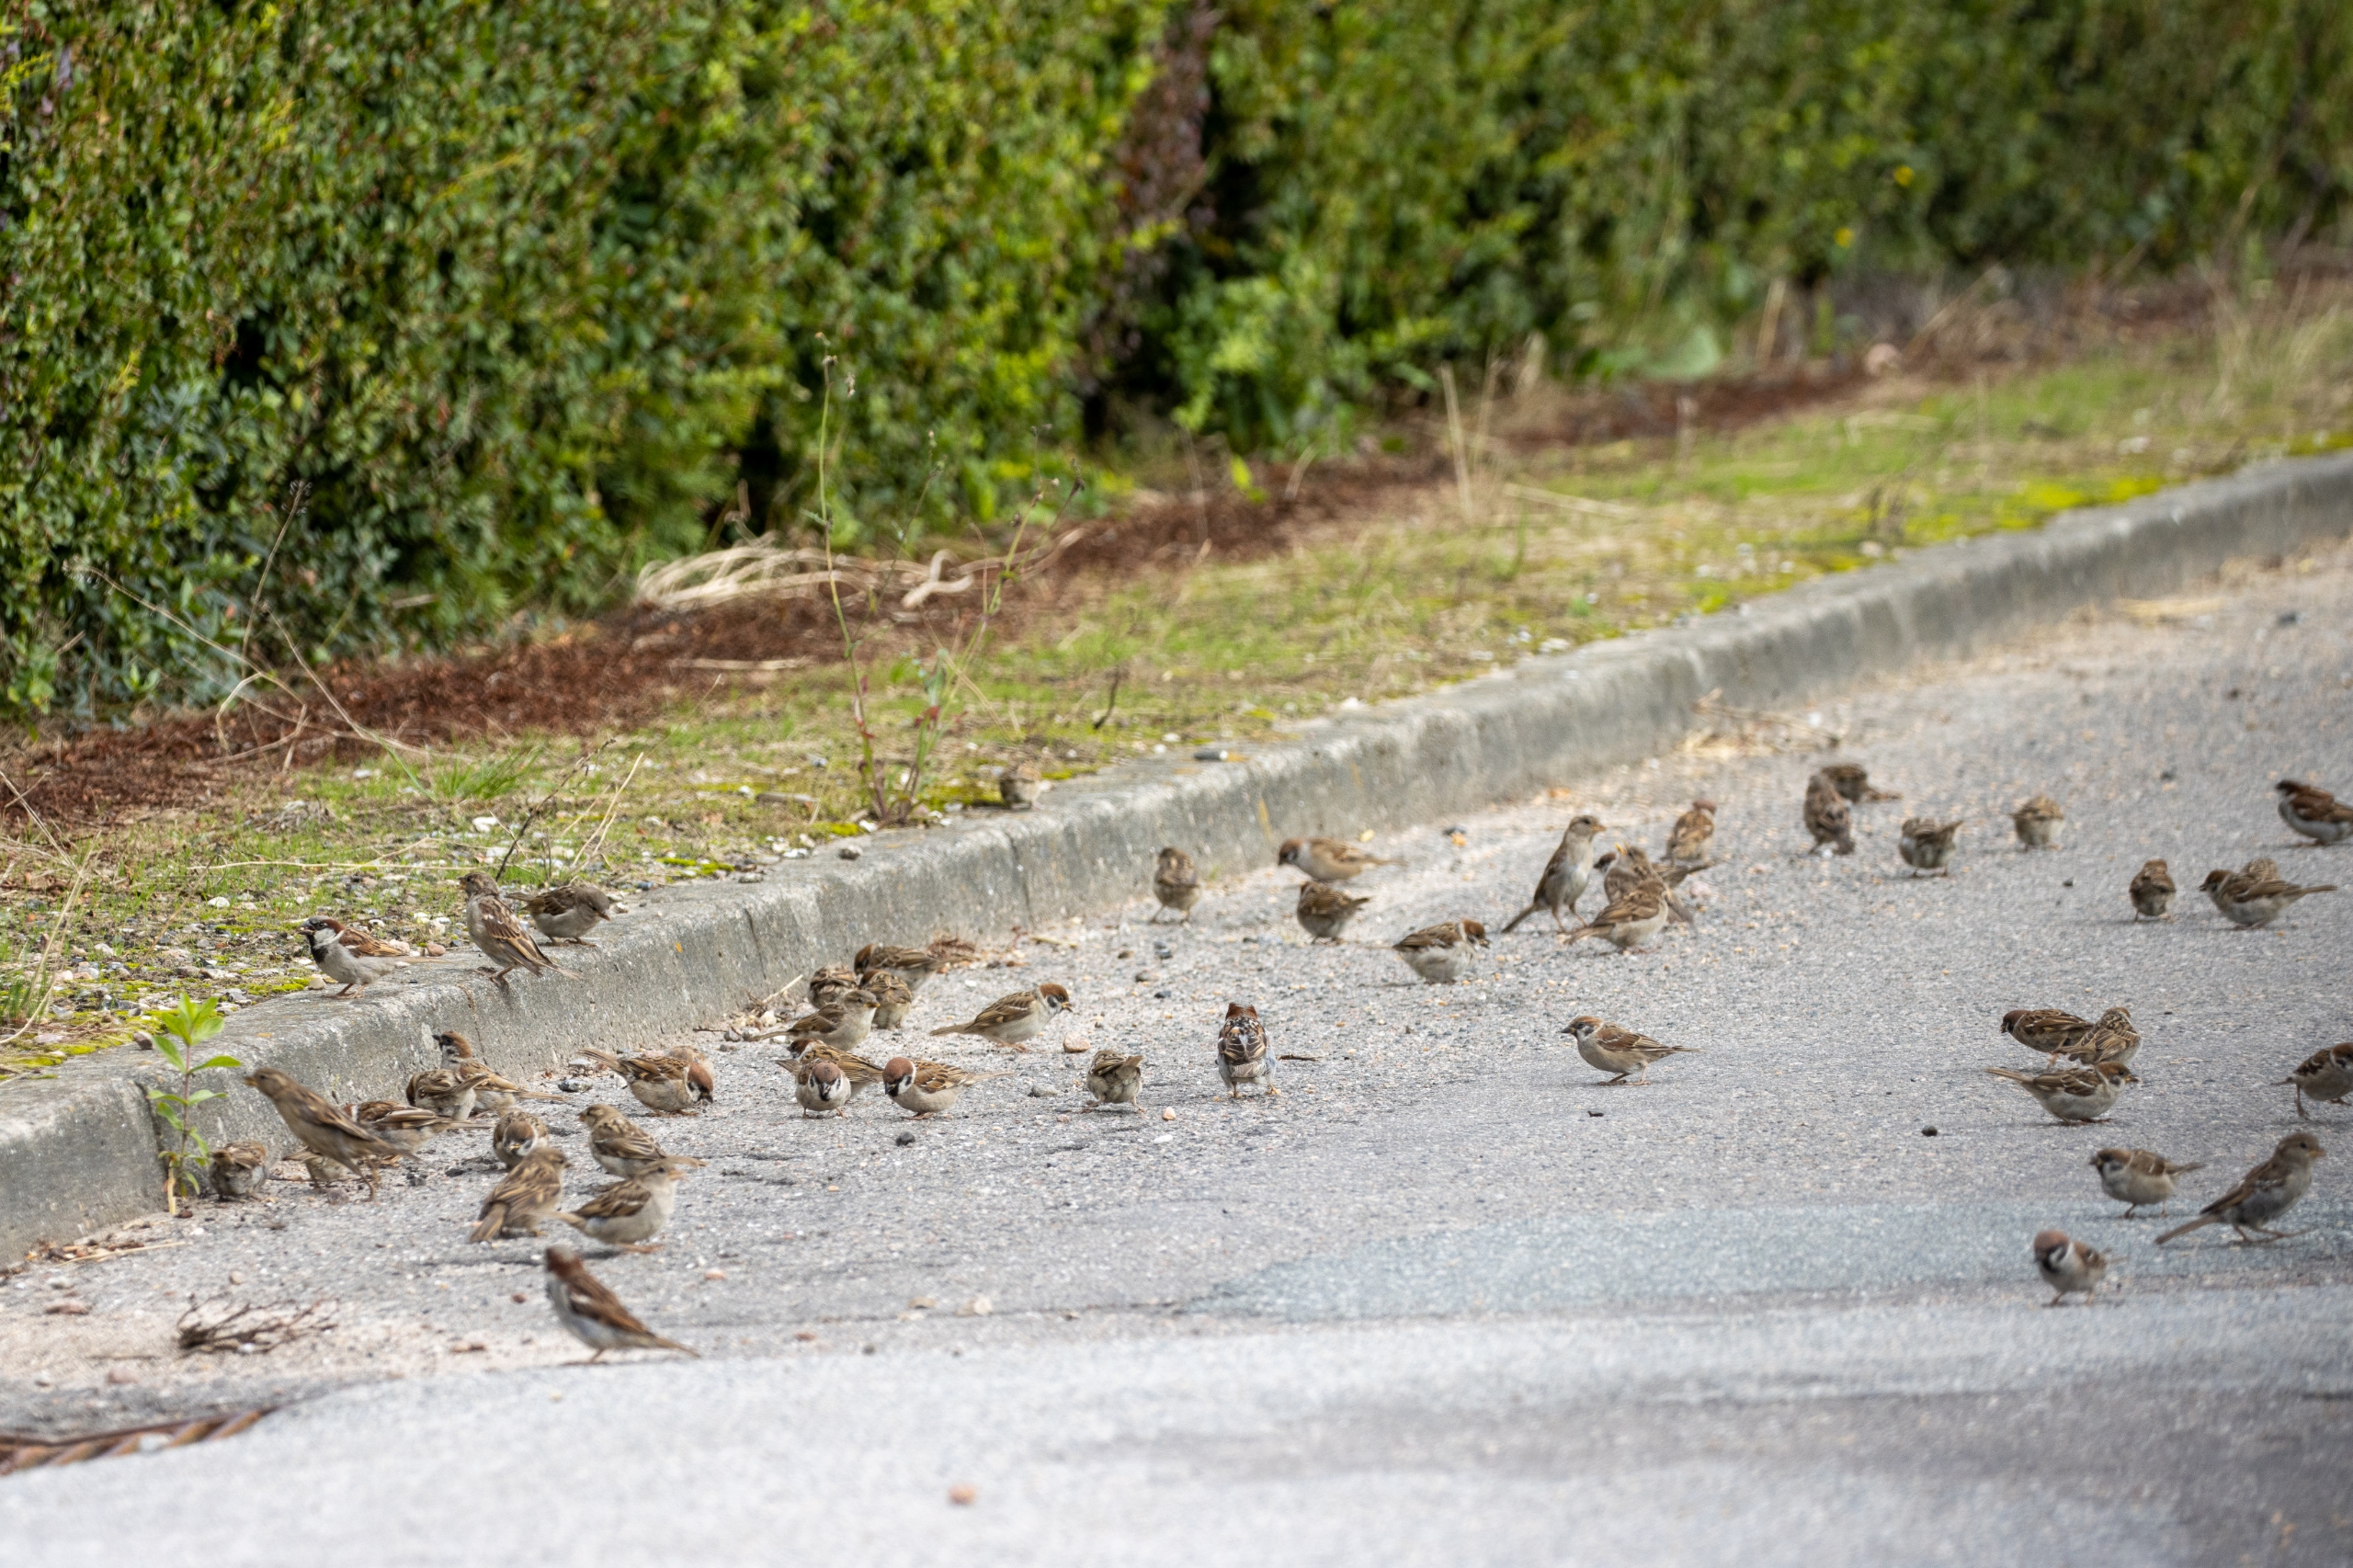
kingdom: Animalia
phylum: Chordata
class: Aves
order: Passeriformes
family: Passeridae
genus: Passer
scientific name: Passer montanus
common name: Skovspurv
